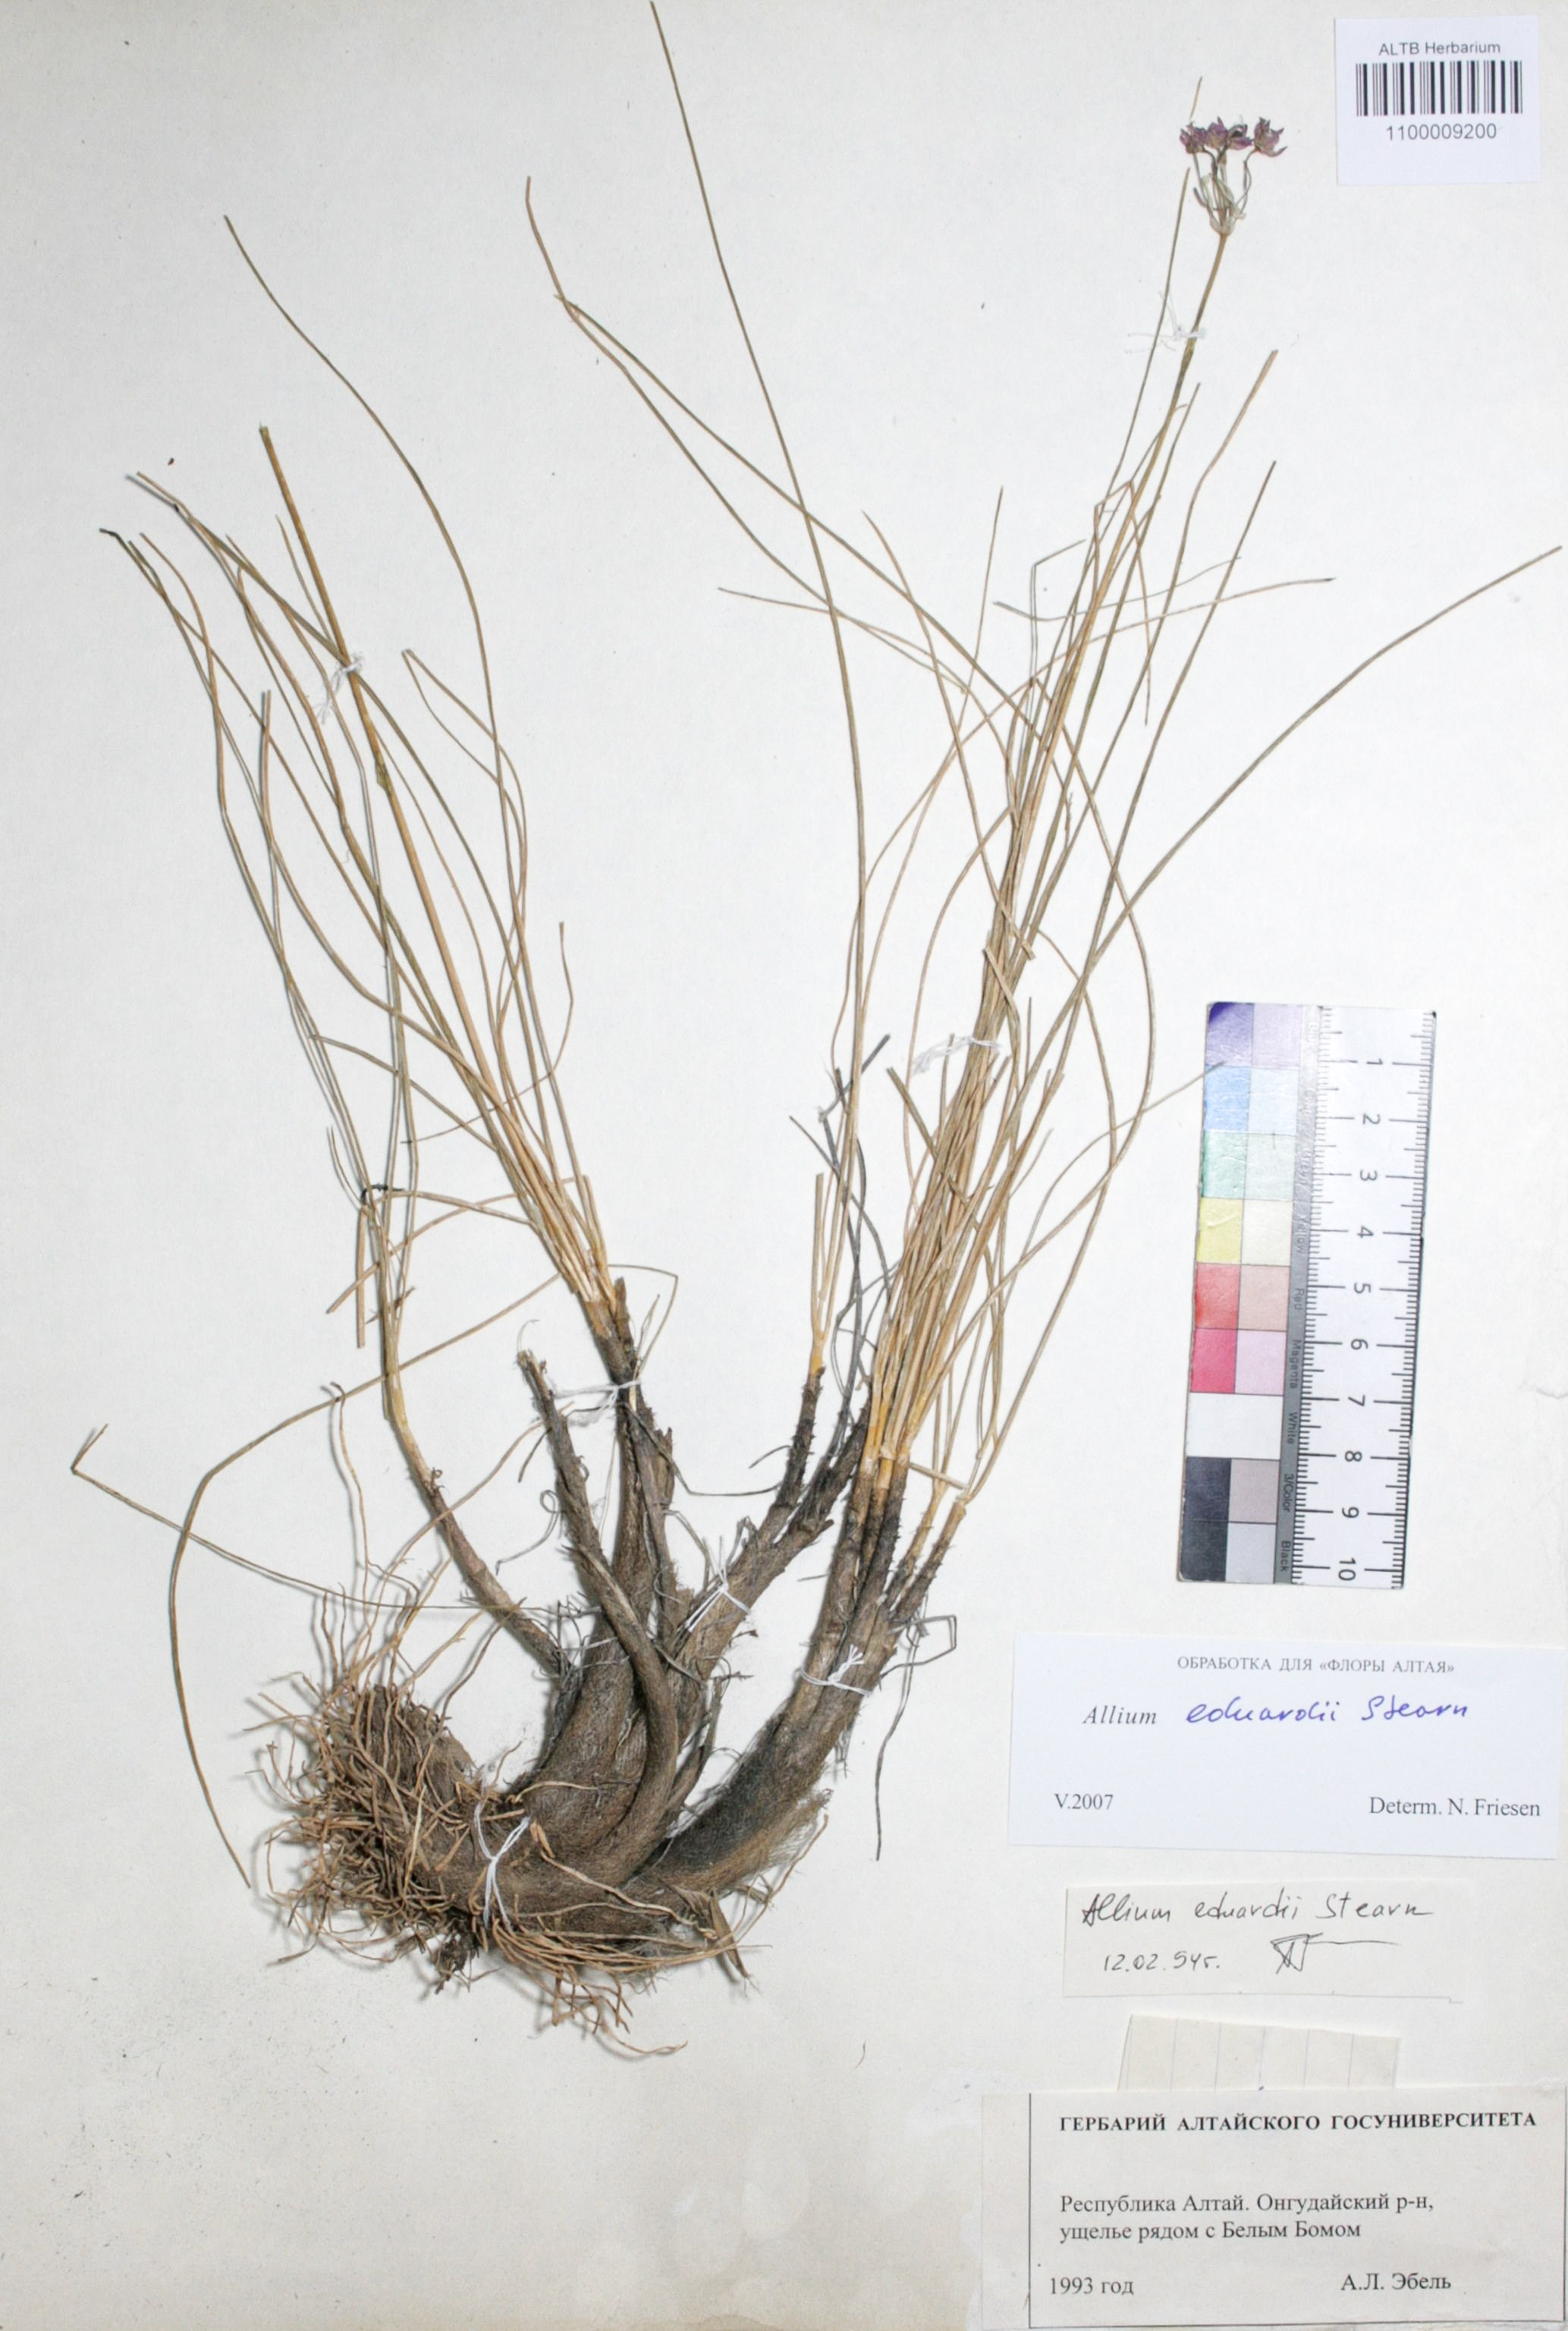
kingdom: Plantae
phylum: Tracheophyta
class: Liliopsida
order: Asparagales
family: Amaryllidaceae
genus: Allium
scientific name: Allium eduardi
